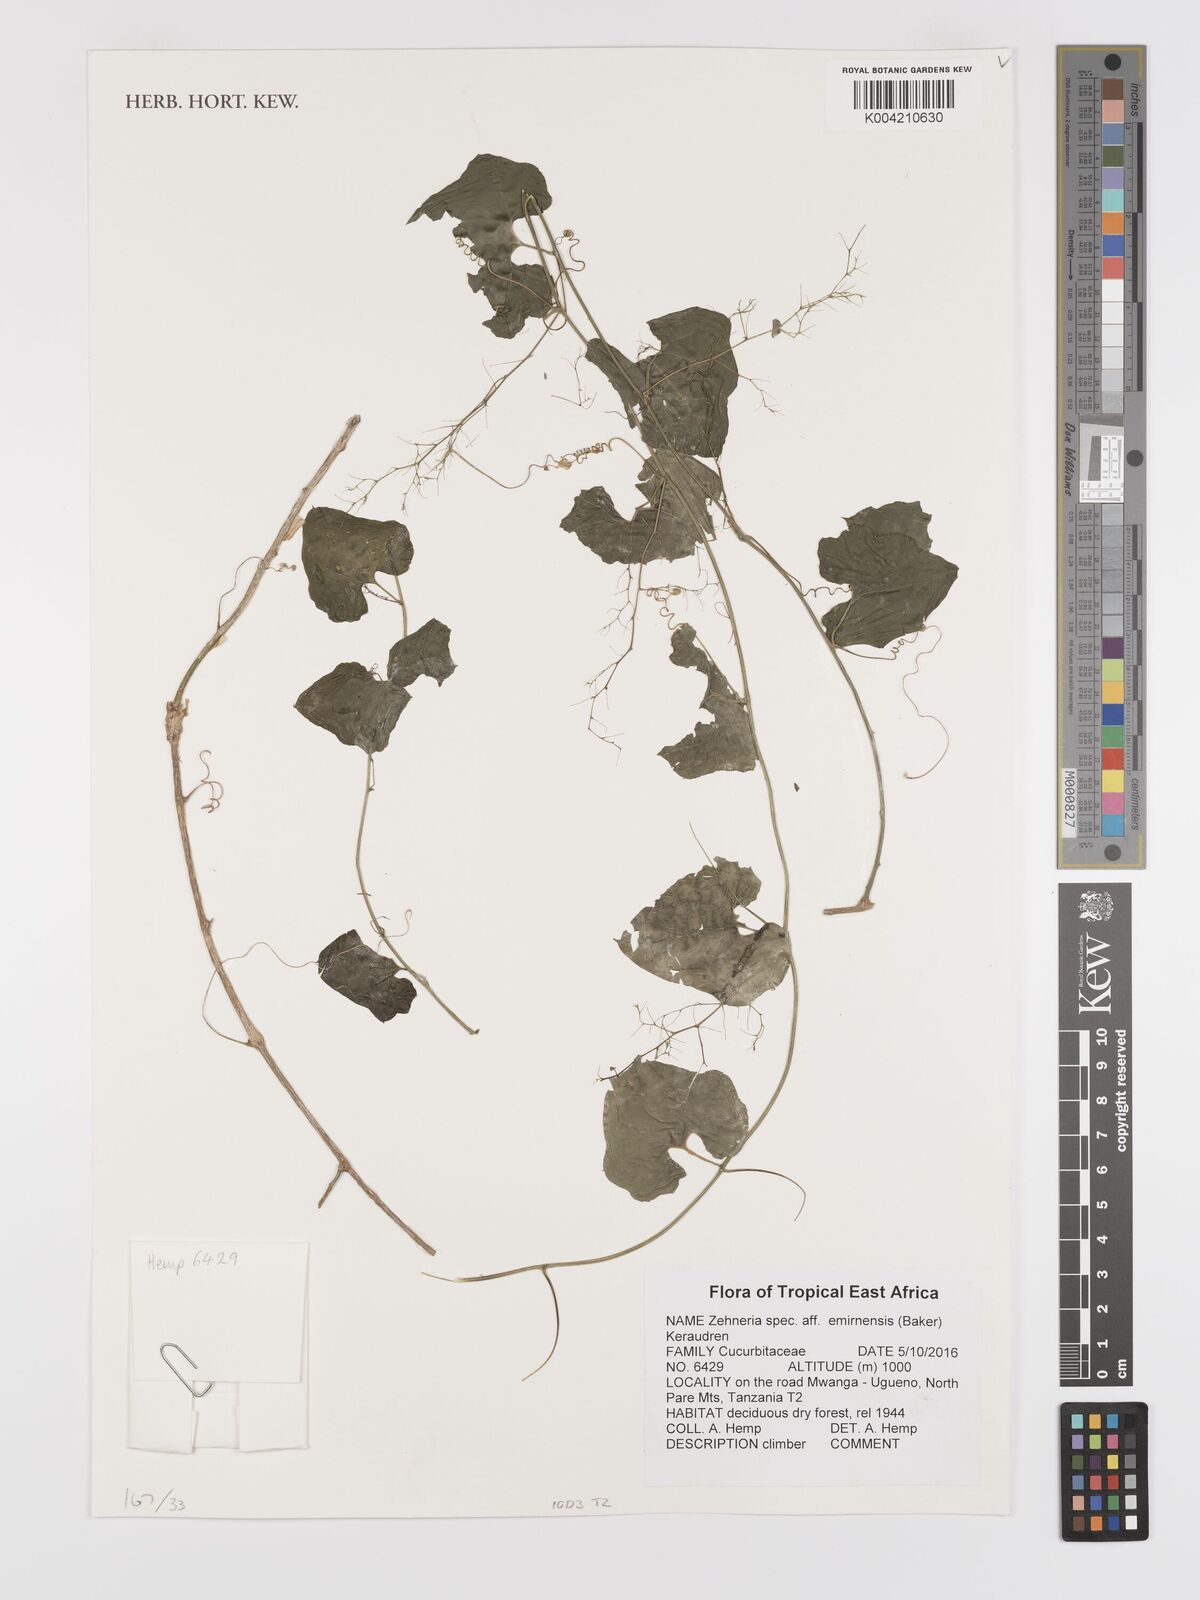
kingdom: Plantae
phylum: Tracheophyta
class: Magnoliopsida
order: Cucurbitales
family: Cucurbitaceae
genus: Zehneria
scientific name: Zehneria emirnensis
